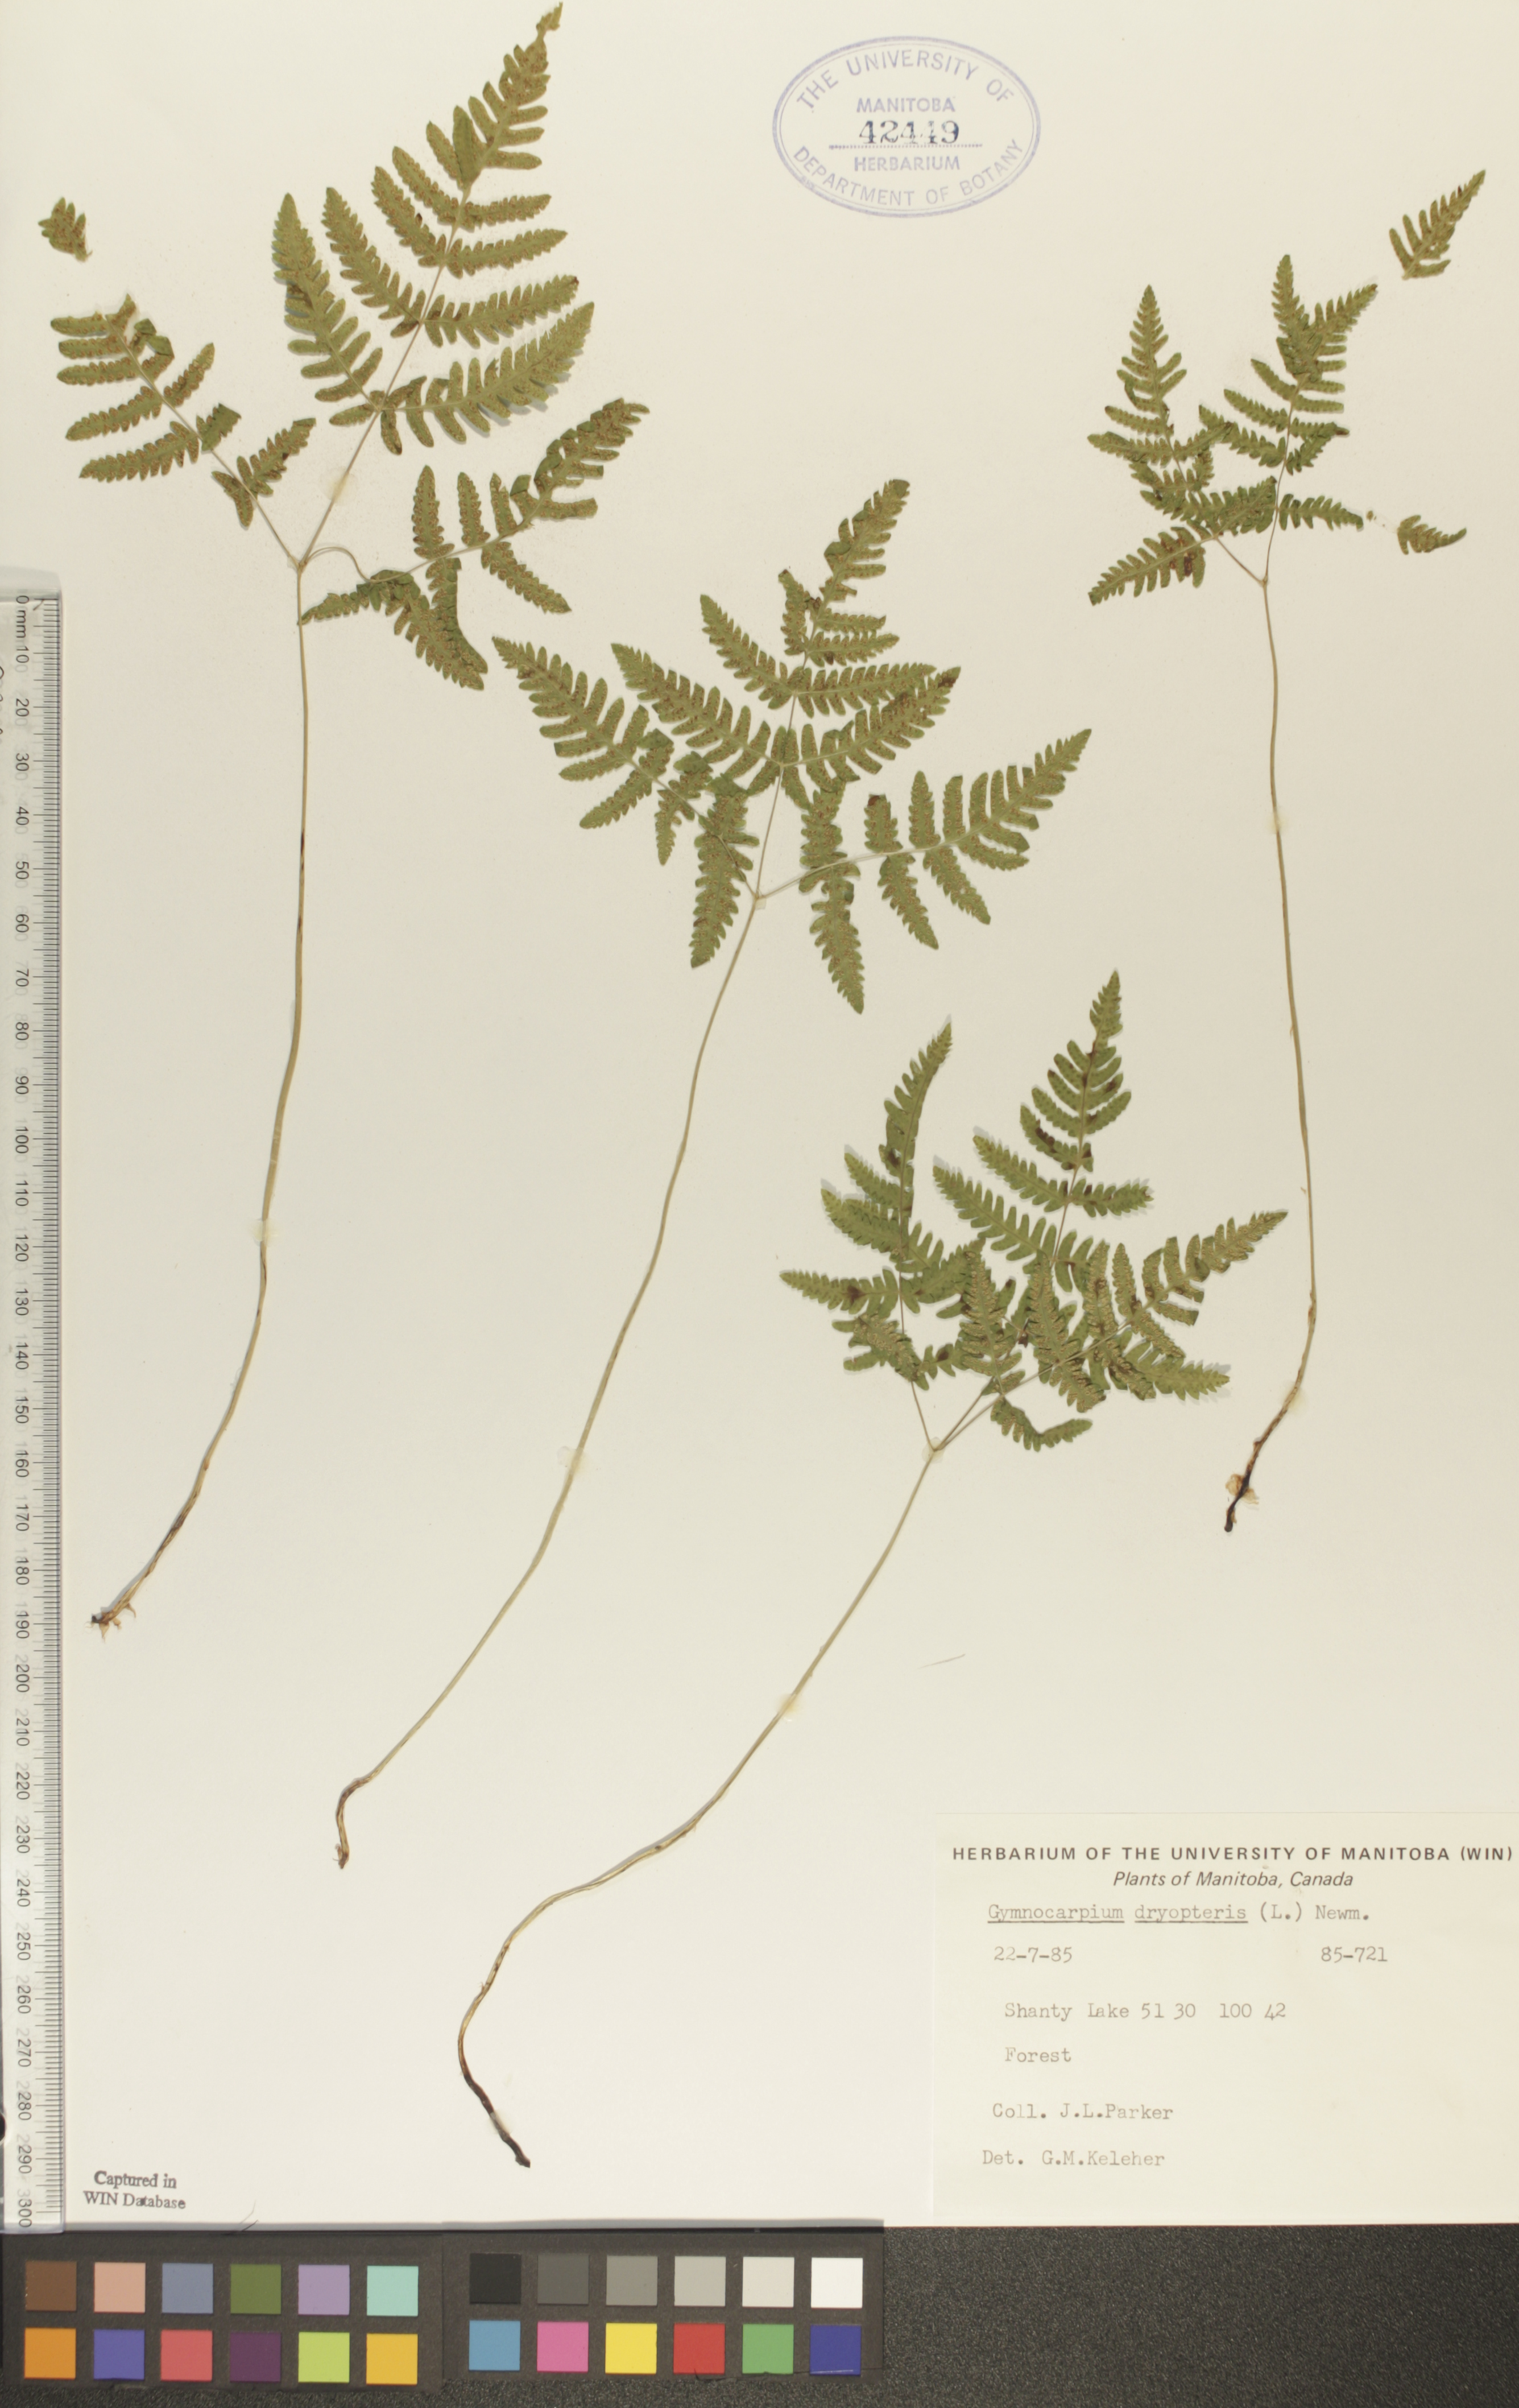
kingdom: Plantae
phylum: Tracheophyta
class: Polypodiopsida
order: Polypodiales
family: Cystopteridaceae
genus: Gymnocarpium
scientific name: Gymnocarpium dryopteris
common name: Oak fern
